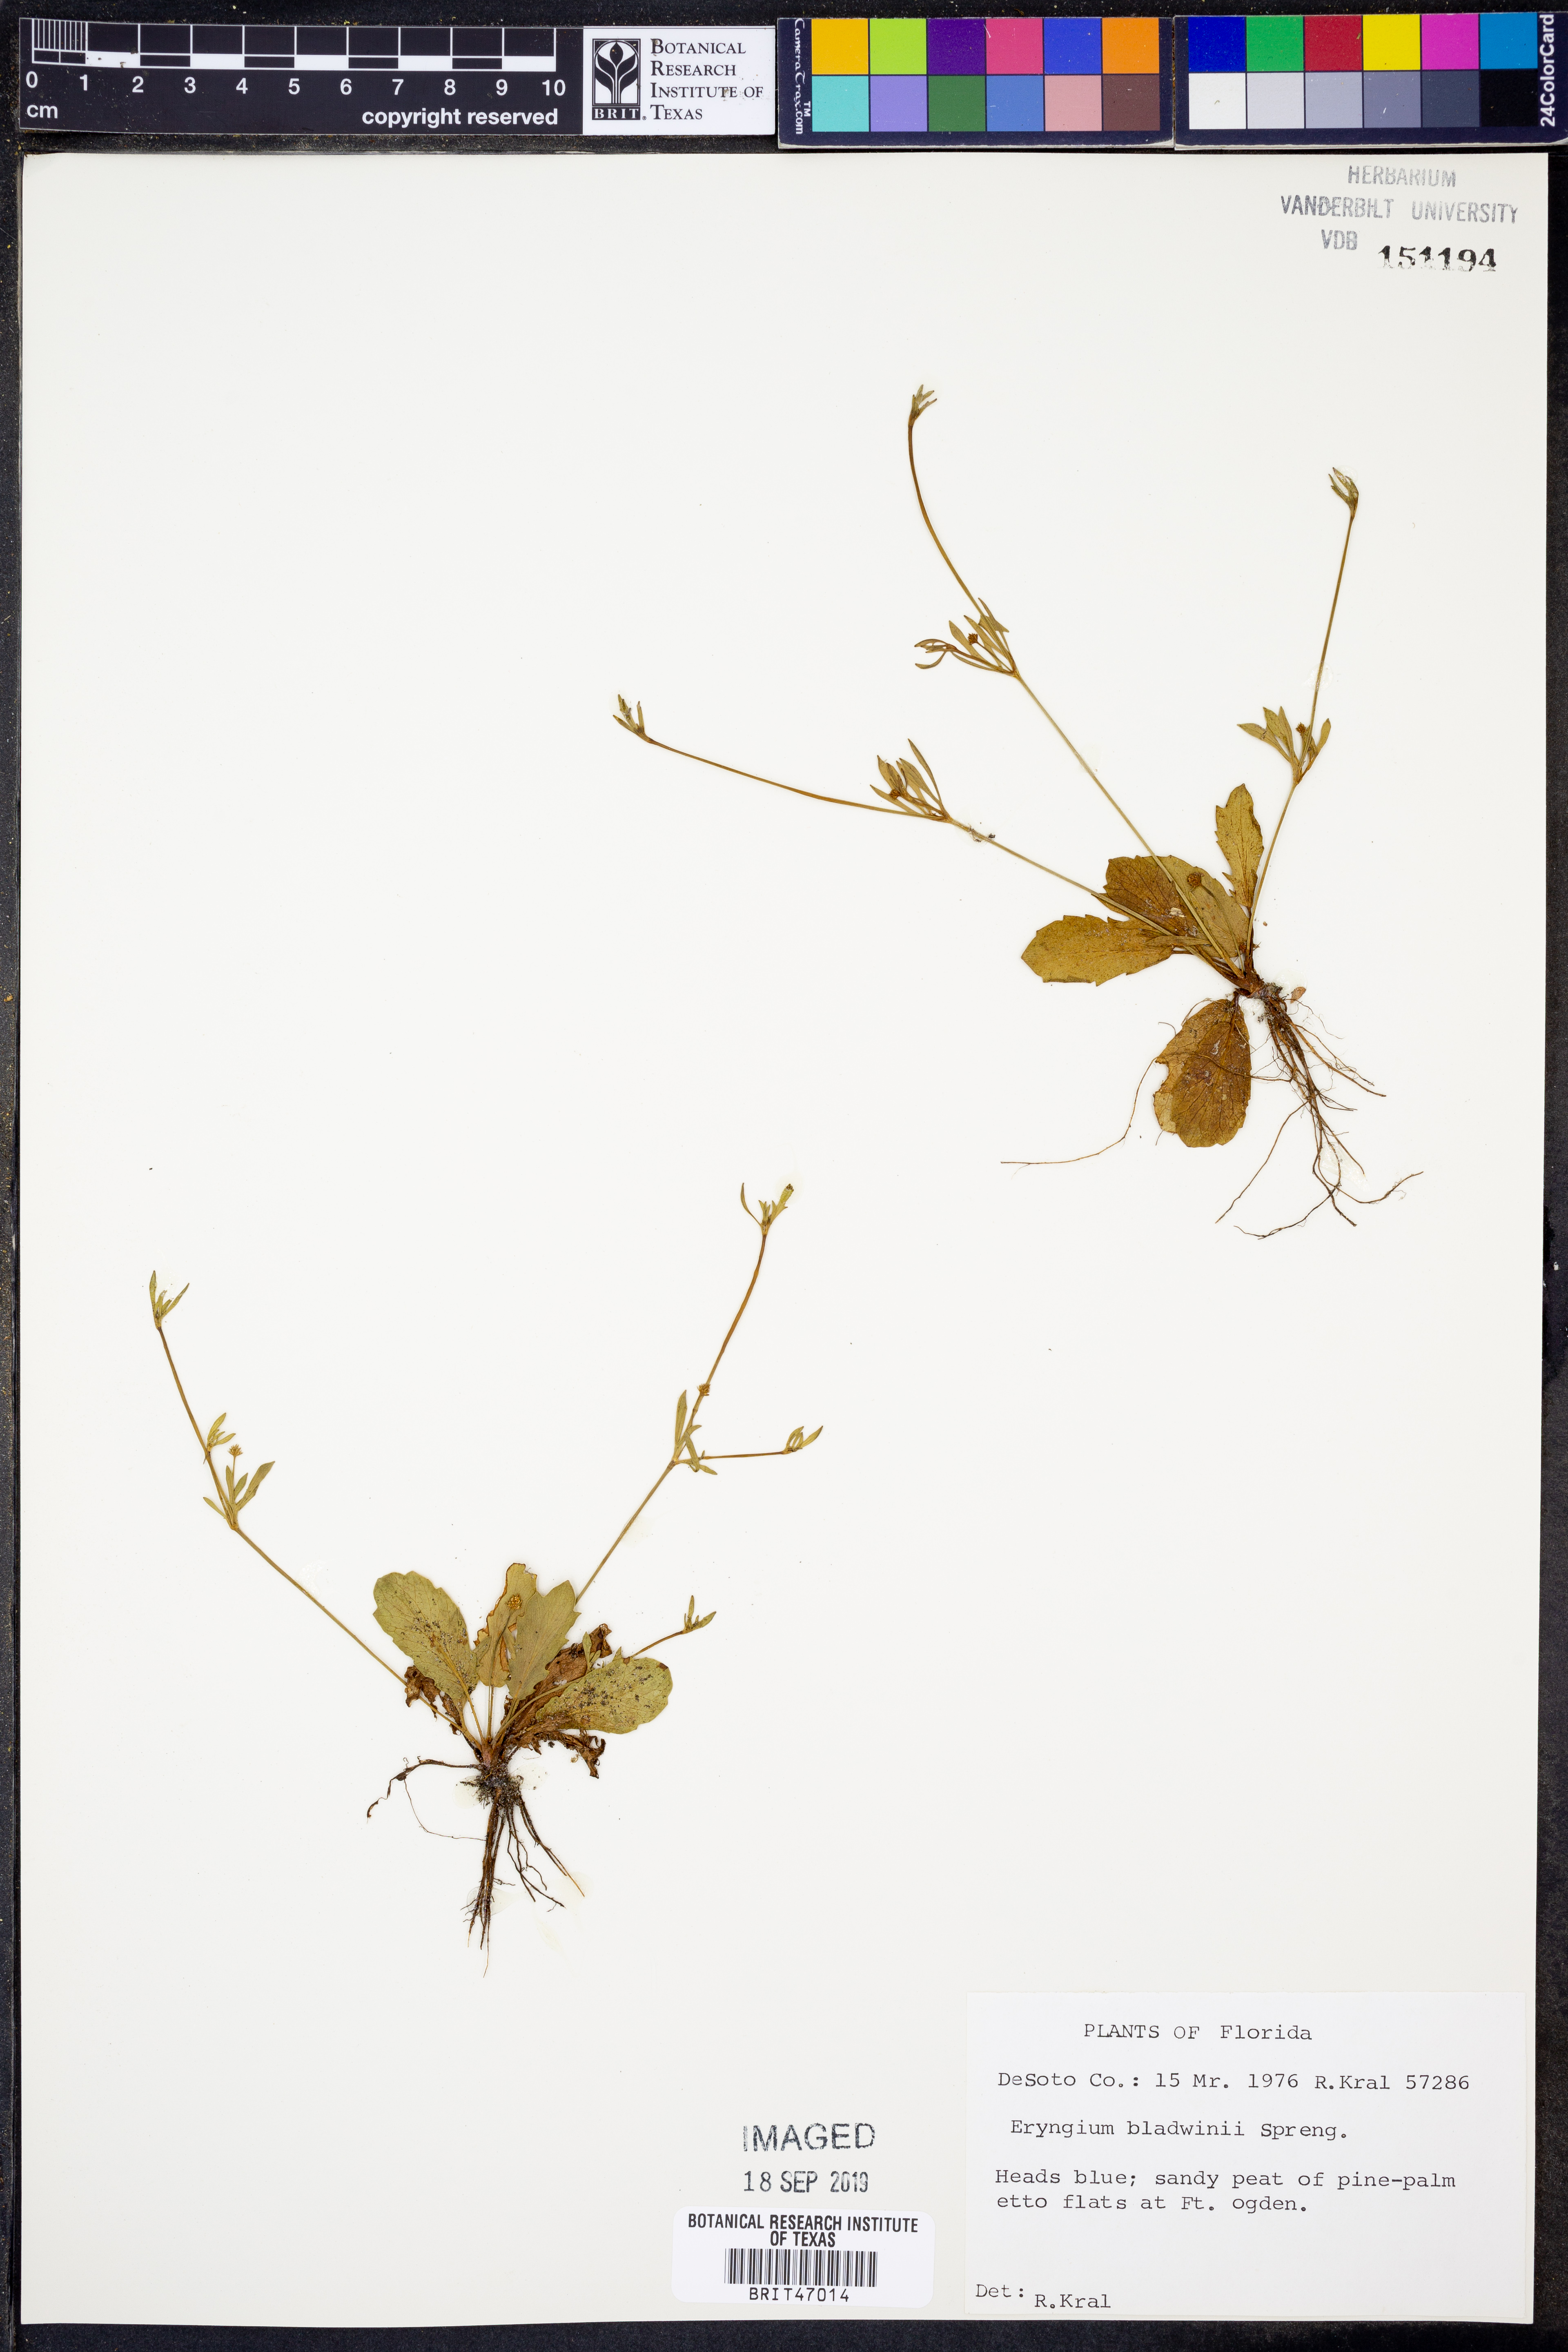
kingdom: Plantae
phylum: Tracheophyta
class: Magnoliopsida
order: Apiales
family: Apiaceae
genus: Eryngium
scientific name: Eryngium baldwinii
